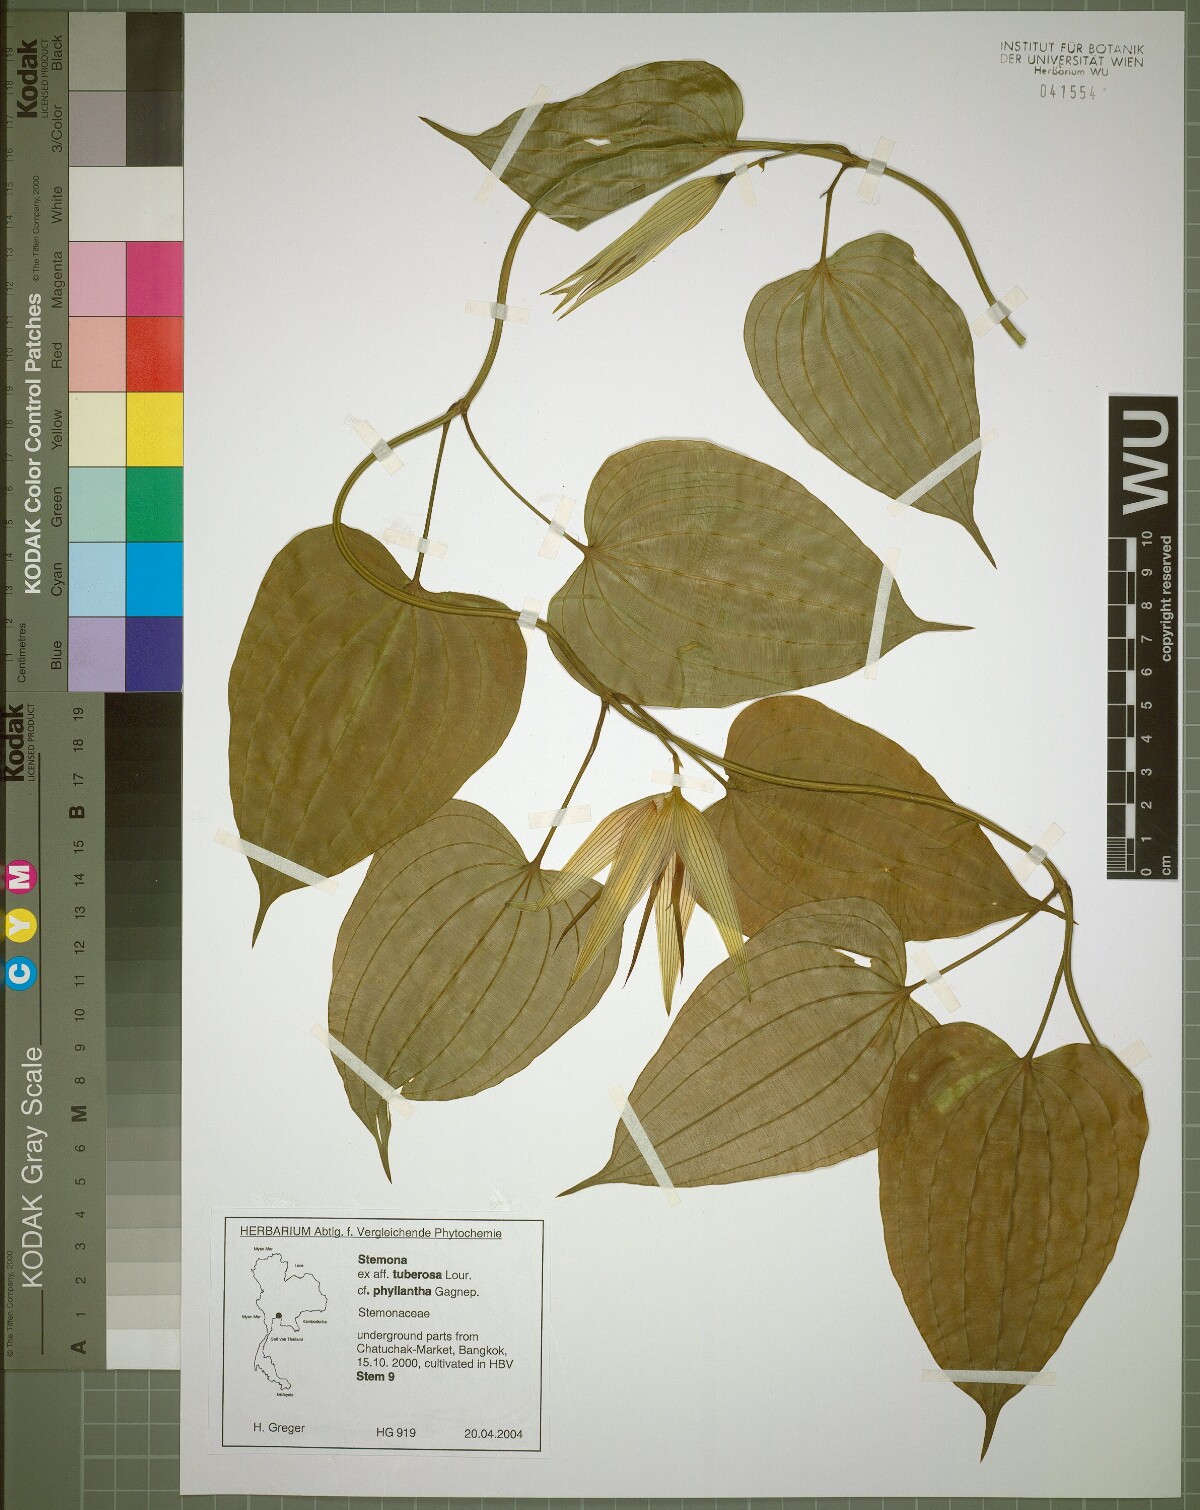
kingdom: Plantae
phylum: Tracheophyta
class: Liliopsida
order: Pandanales
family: Stemonaceae
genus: Stemona
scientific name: Stemona phyllantha
